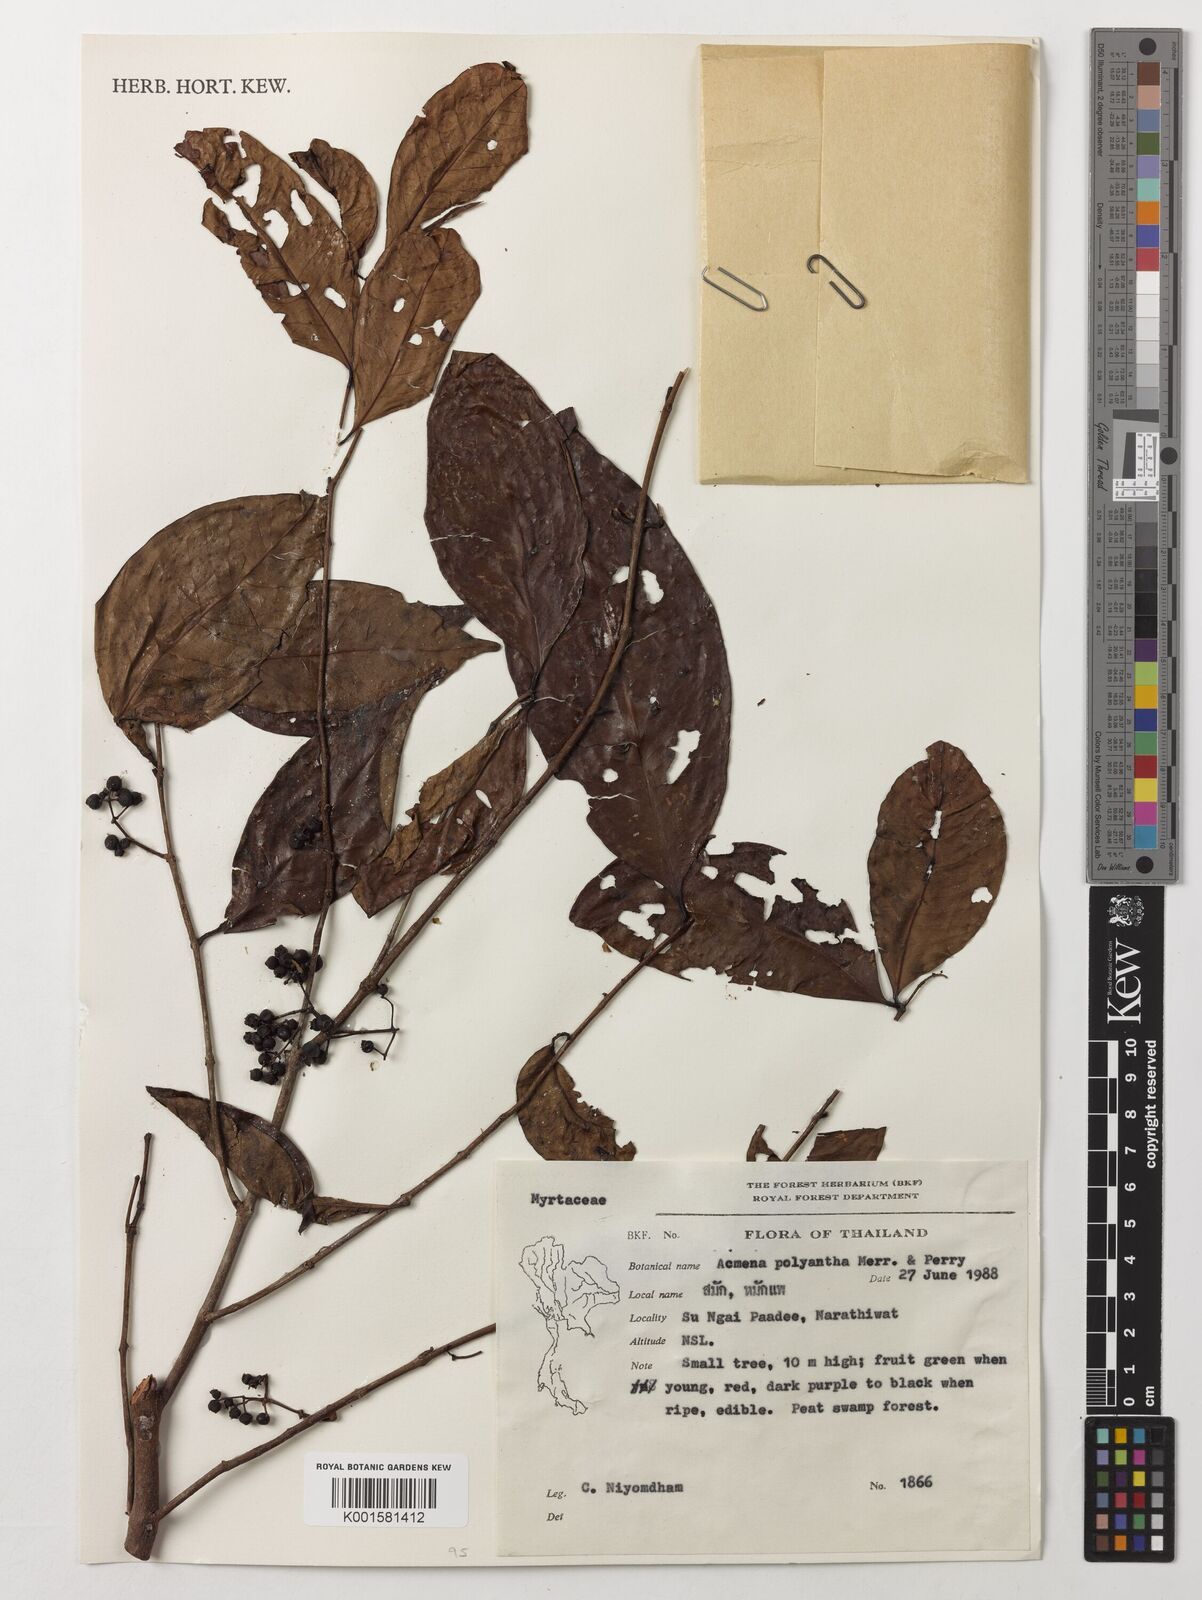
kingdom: Plantae
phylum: Tracheophyta
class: Magnoliopsida
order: Myrtales
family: Myrtaceae
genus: Syzygium
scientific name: Syzygium acuminatissimum
